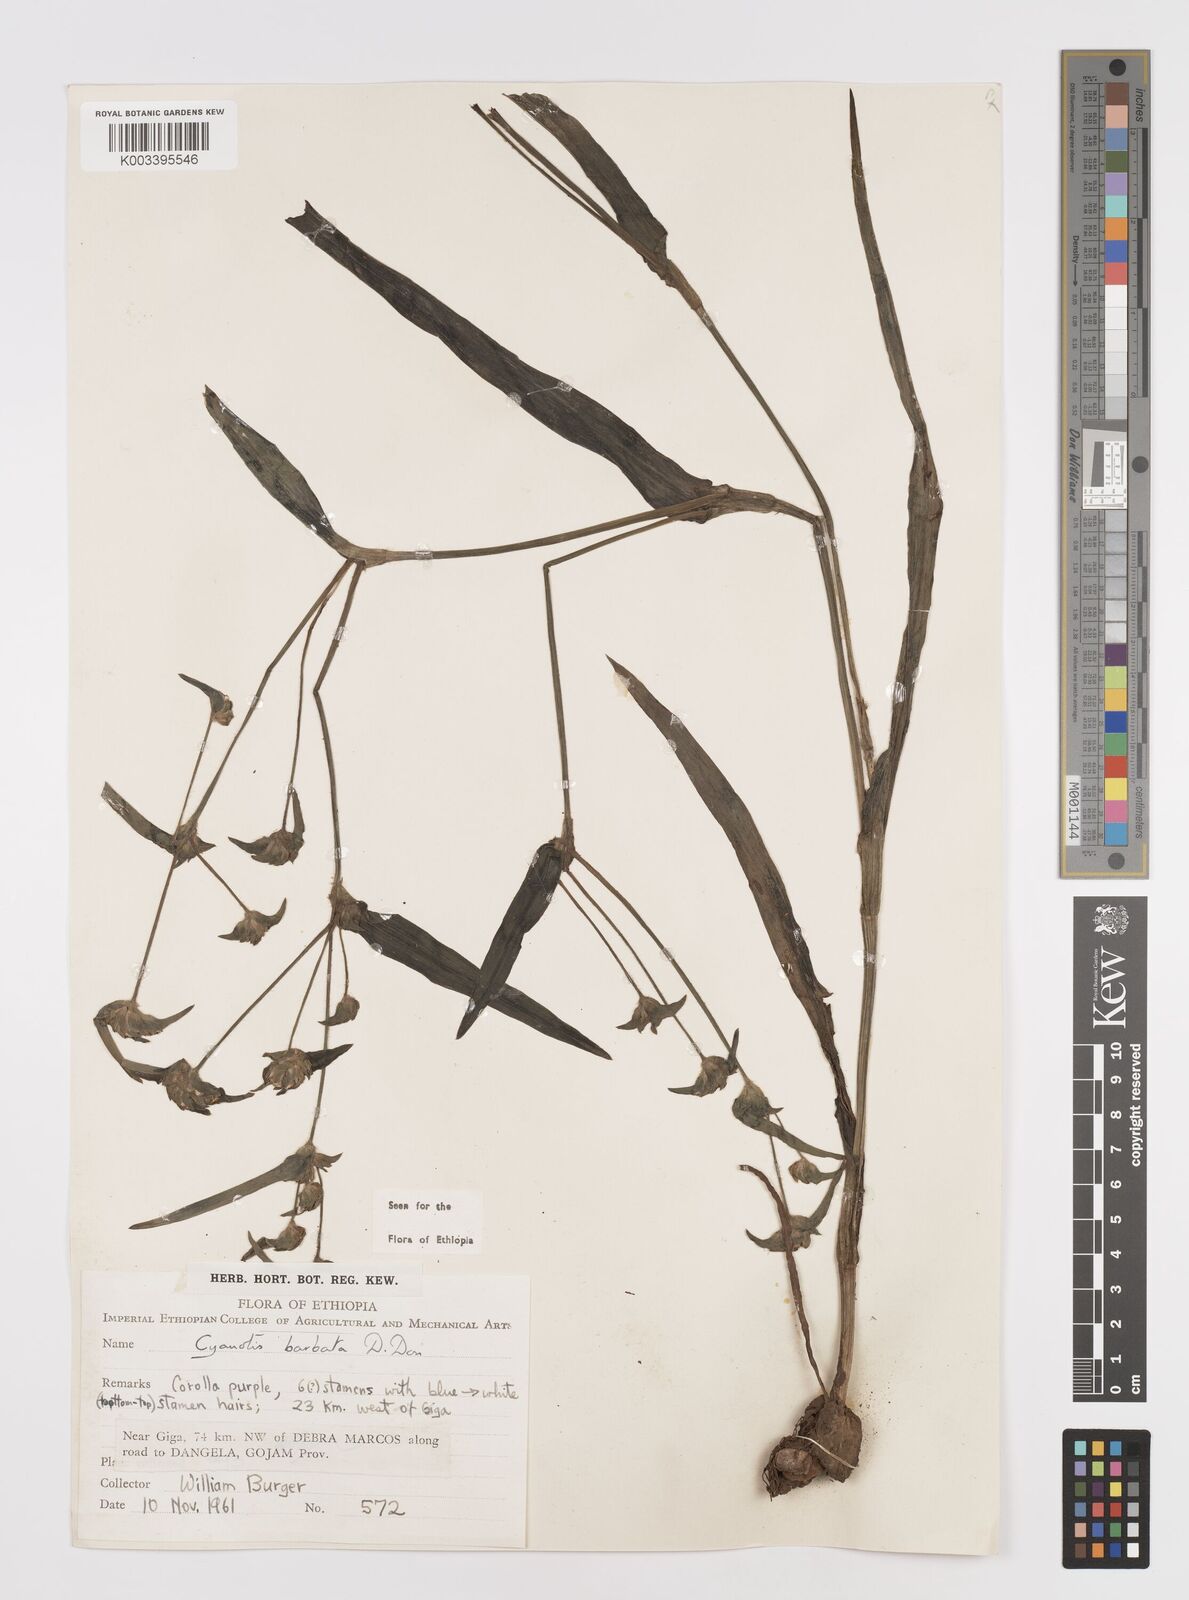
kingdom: Plantae
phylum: Tracheophyta
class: Liliopsida
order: Commelinales
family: Commelinaceae
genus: Cyanotis
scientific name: Cyanotis vaga
